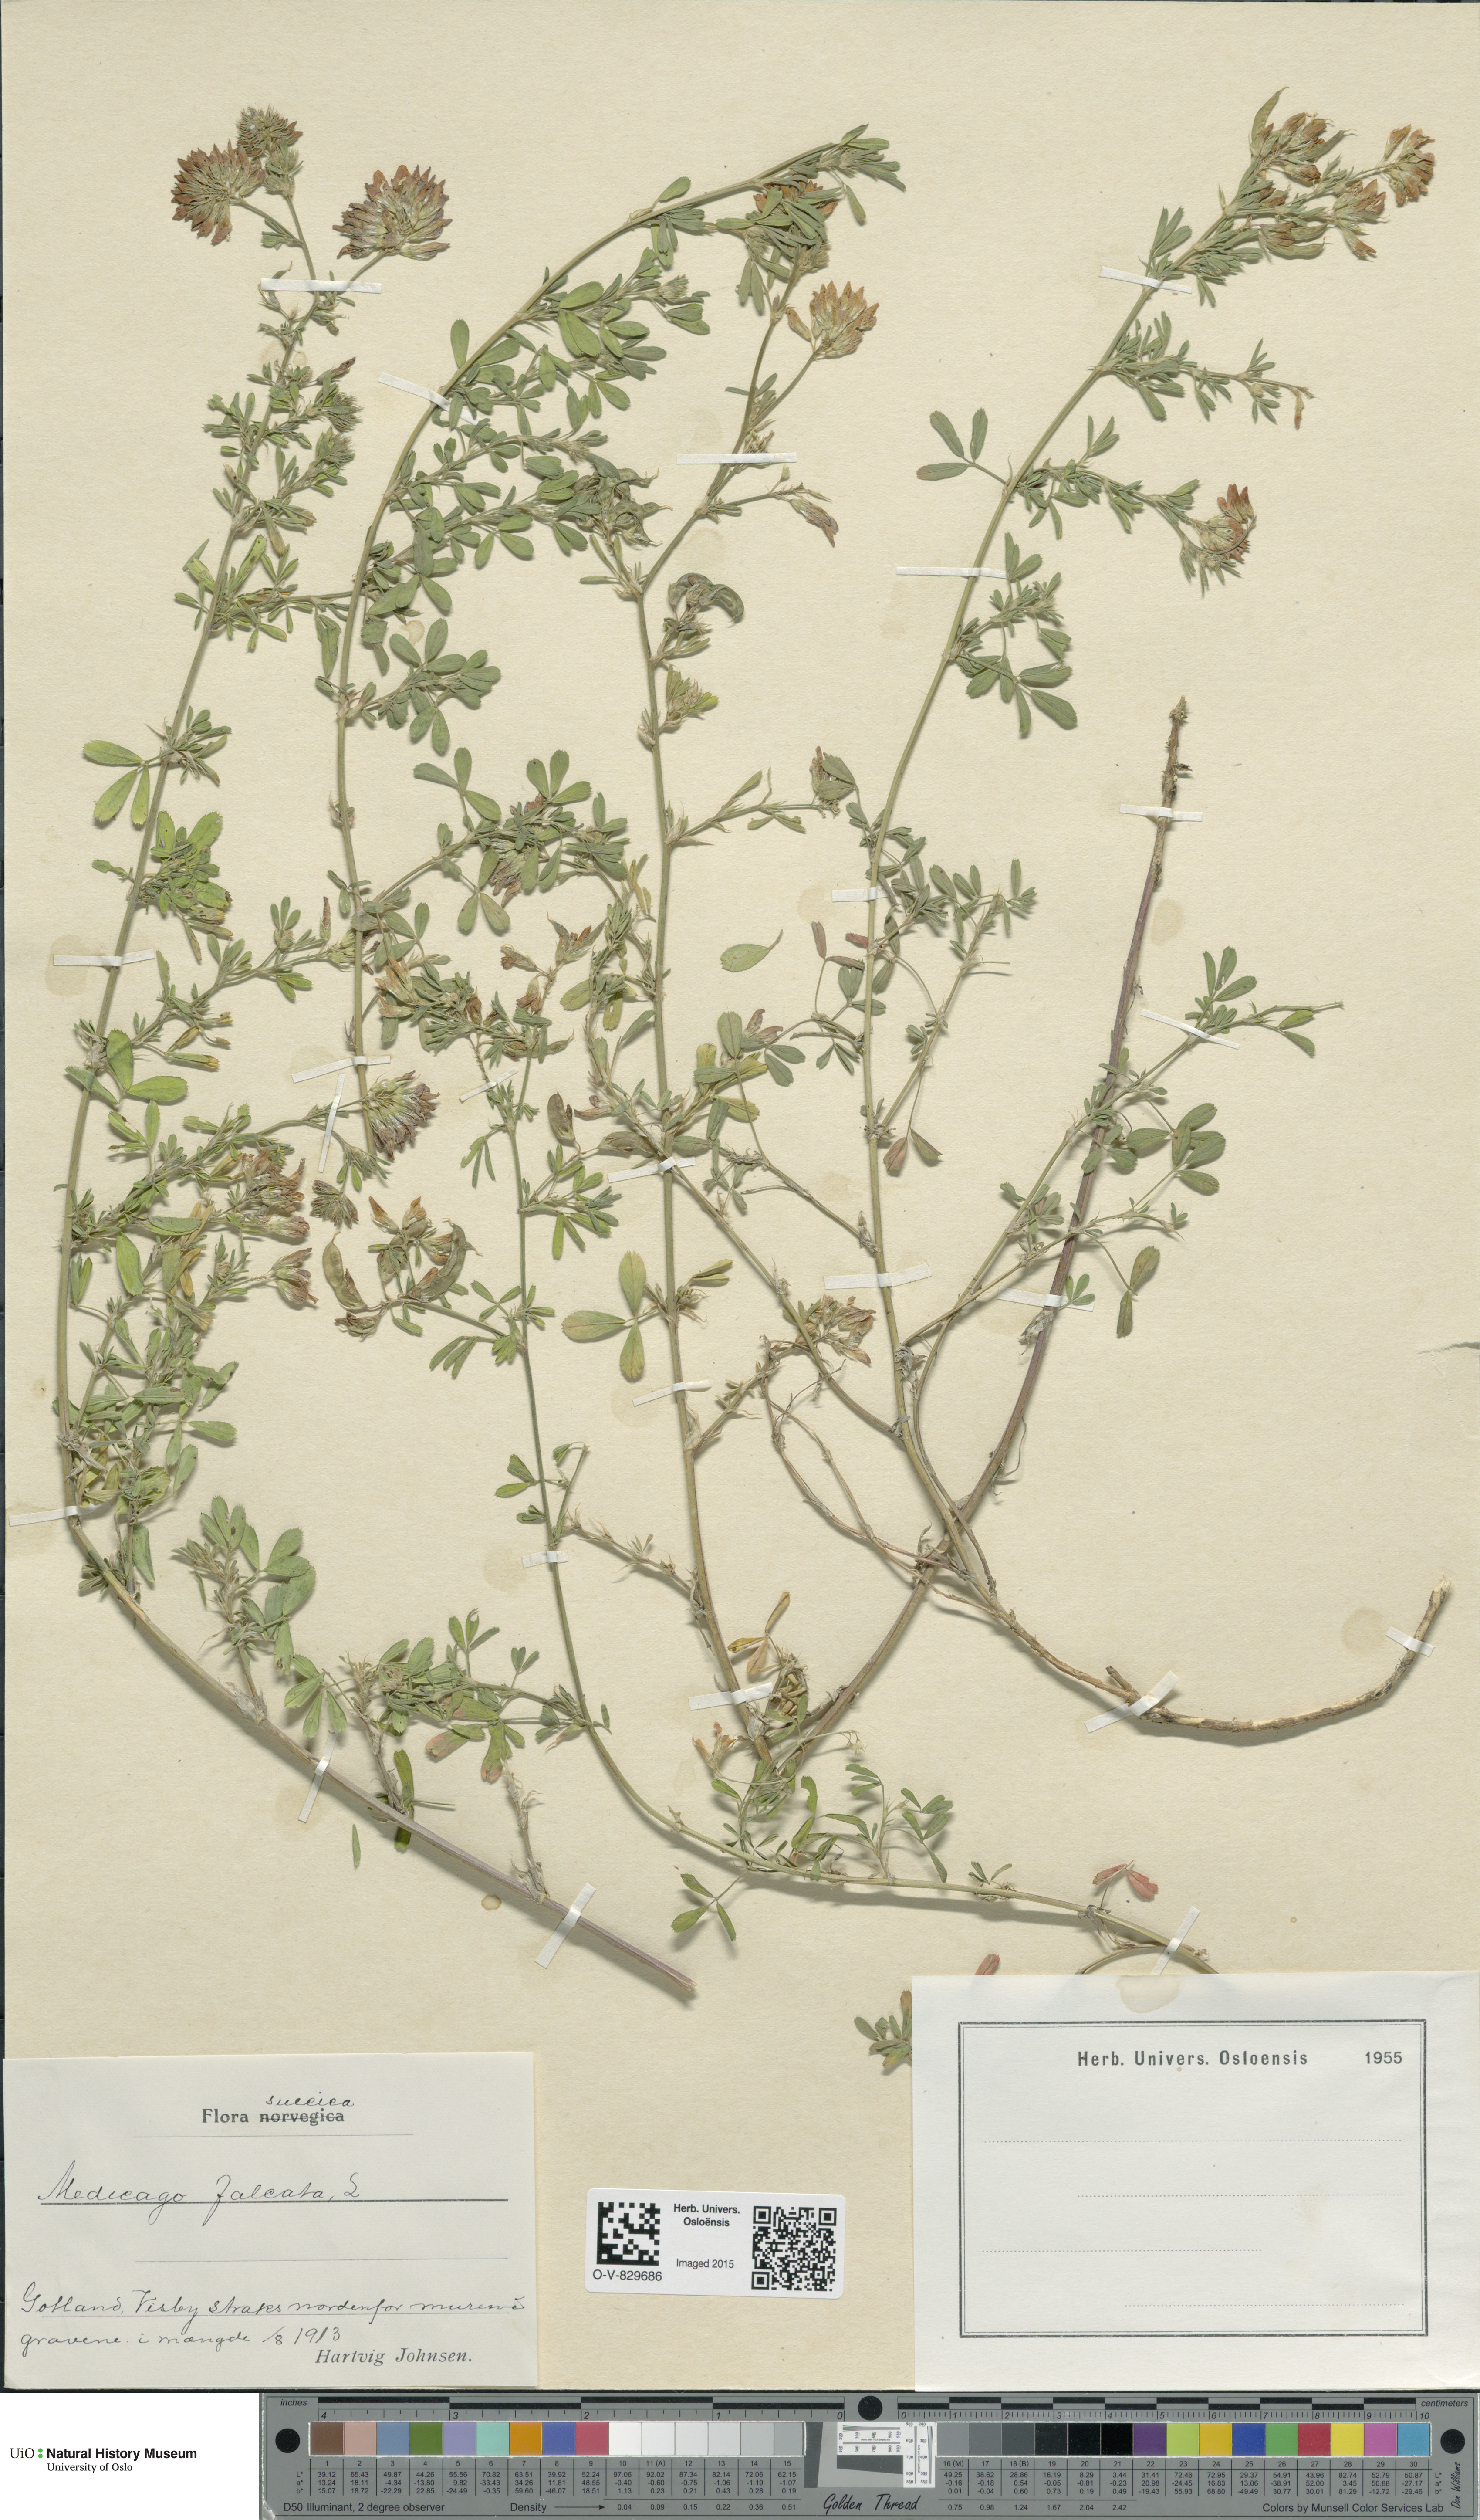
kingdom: Plantae
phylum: Tracheophyta
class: Magnoliopsida
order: Fabales
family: Fabaceae
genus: Medicago
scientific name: Medicago
